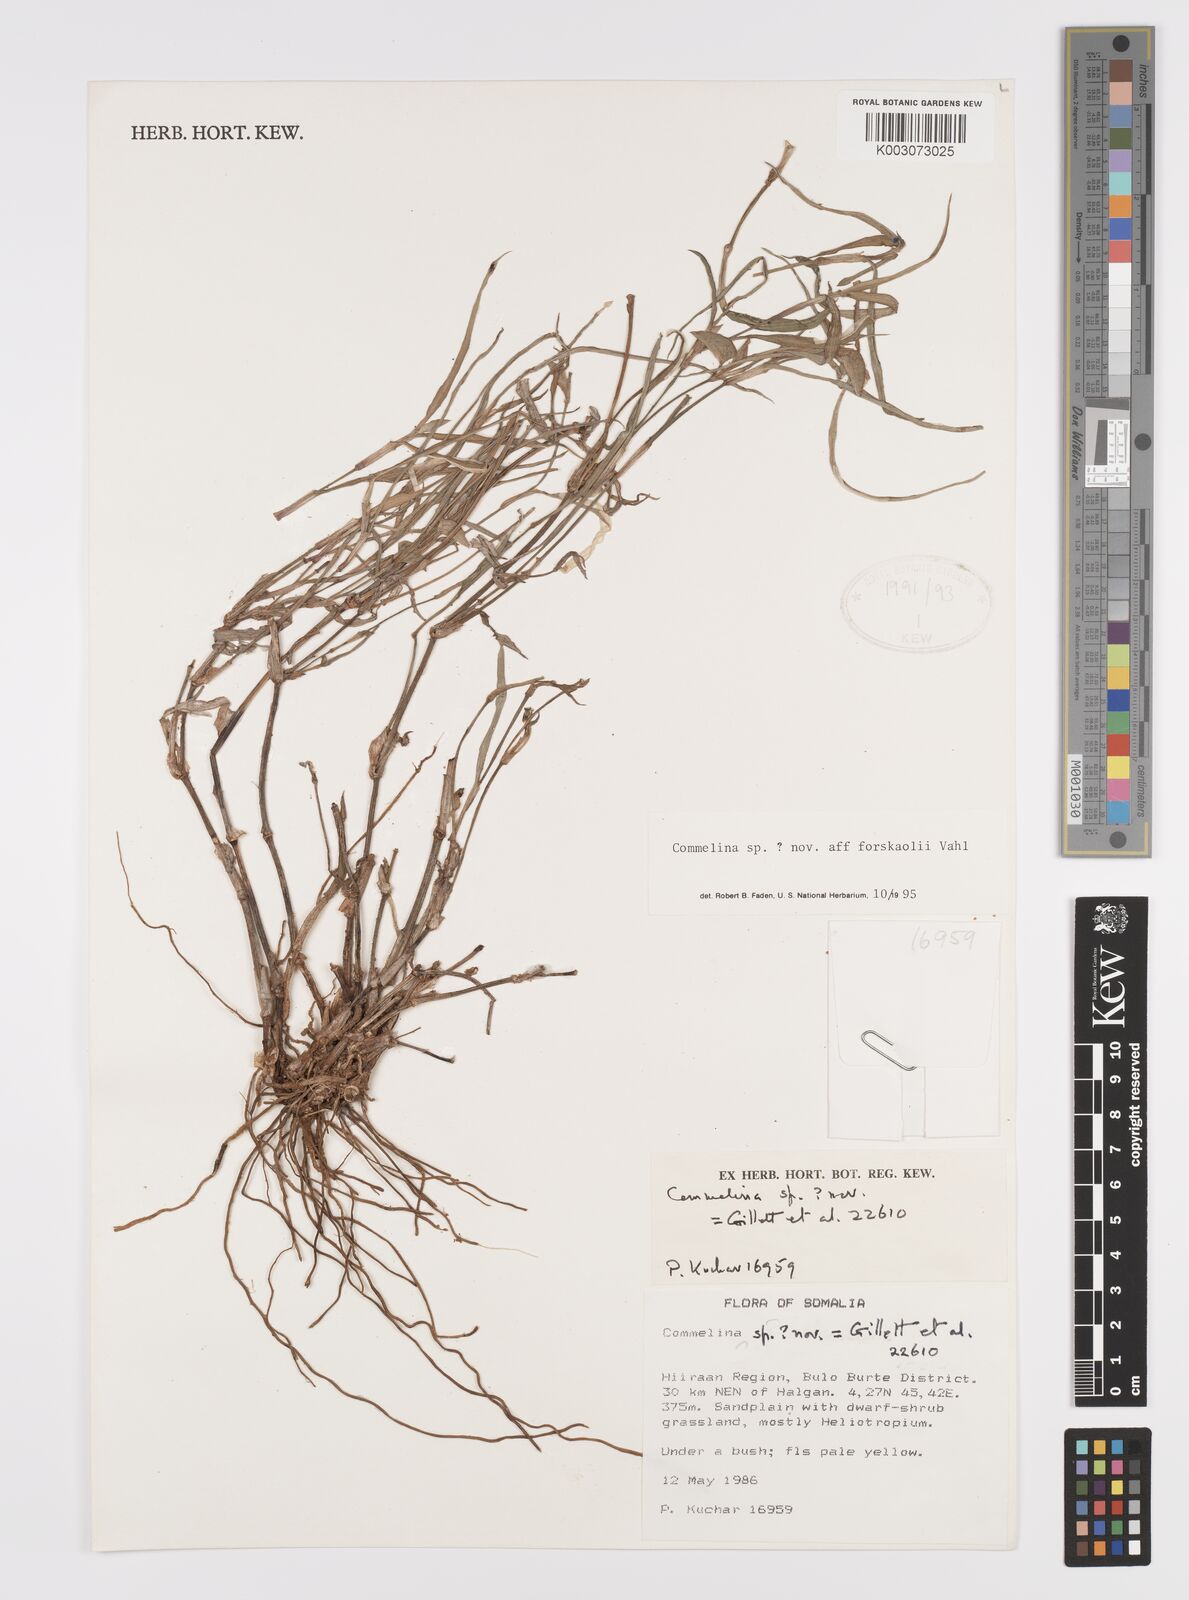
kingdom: Plantae
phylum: Tracheophyta
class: Liliopsida
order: Commelinales
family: Commelinaceae
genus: Commelina
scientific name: Commelina forskaolii
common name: Rat's ear
